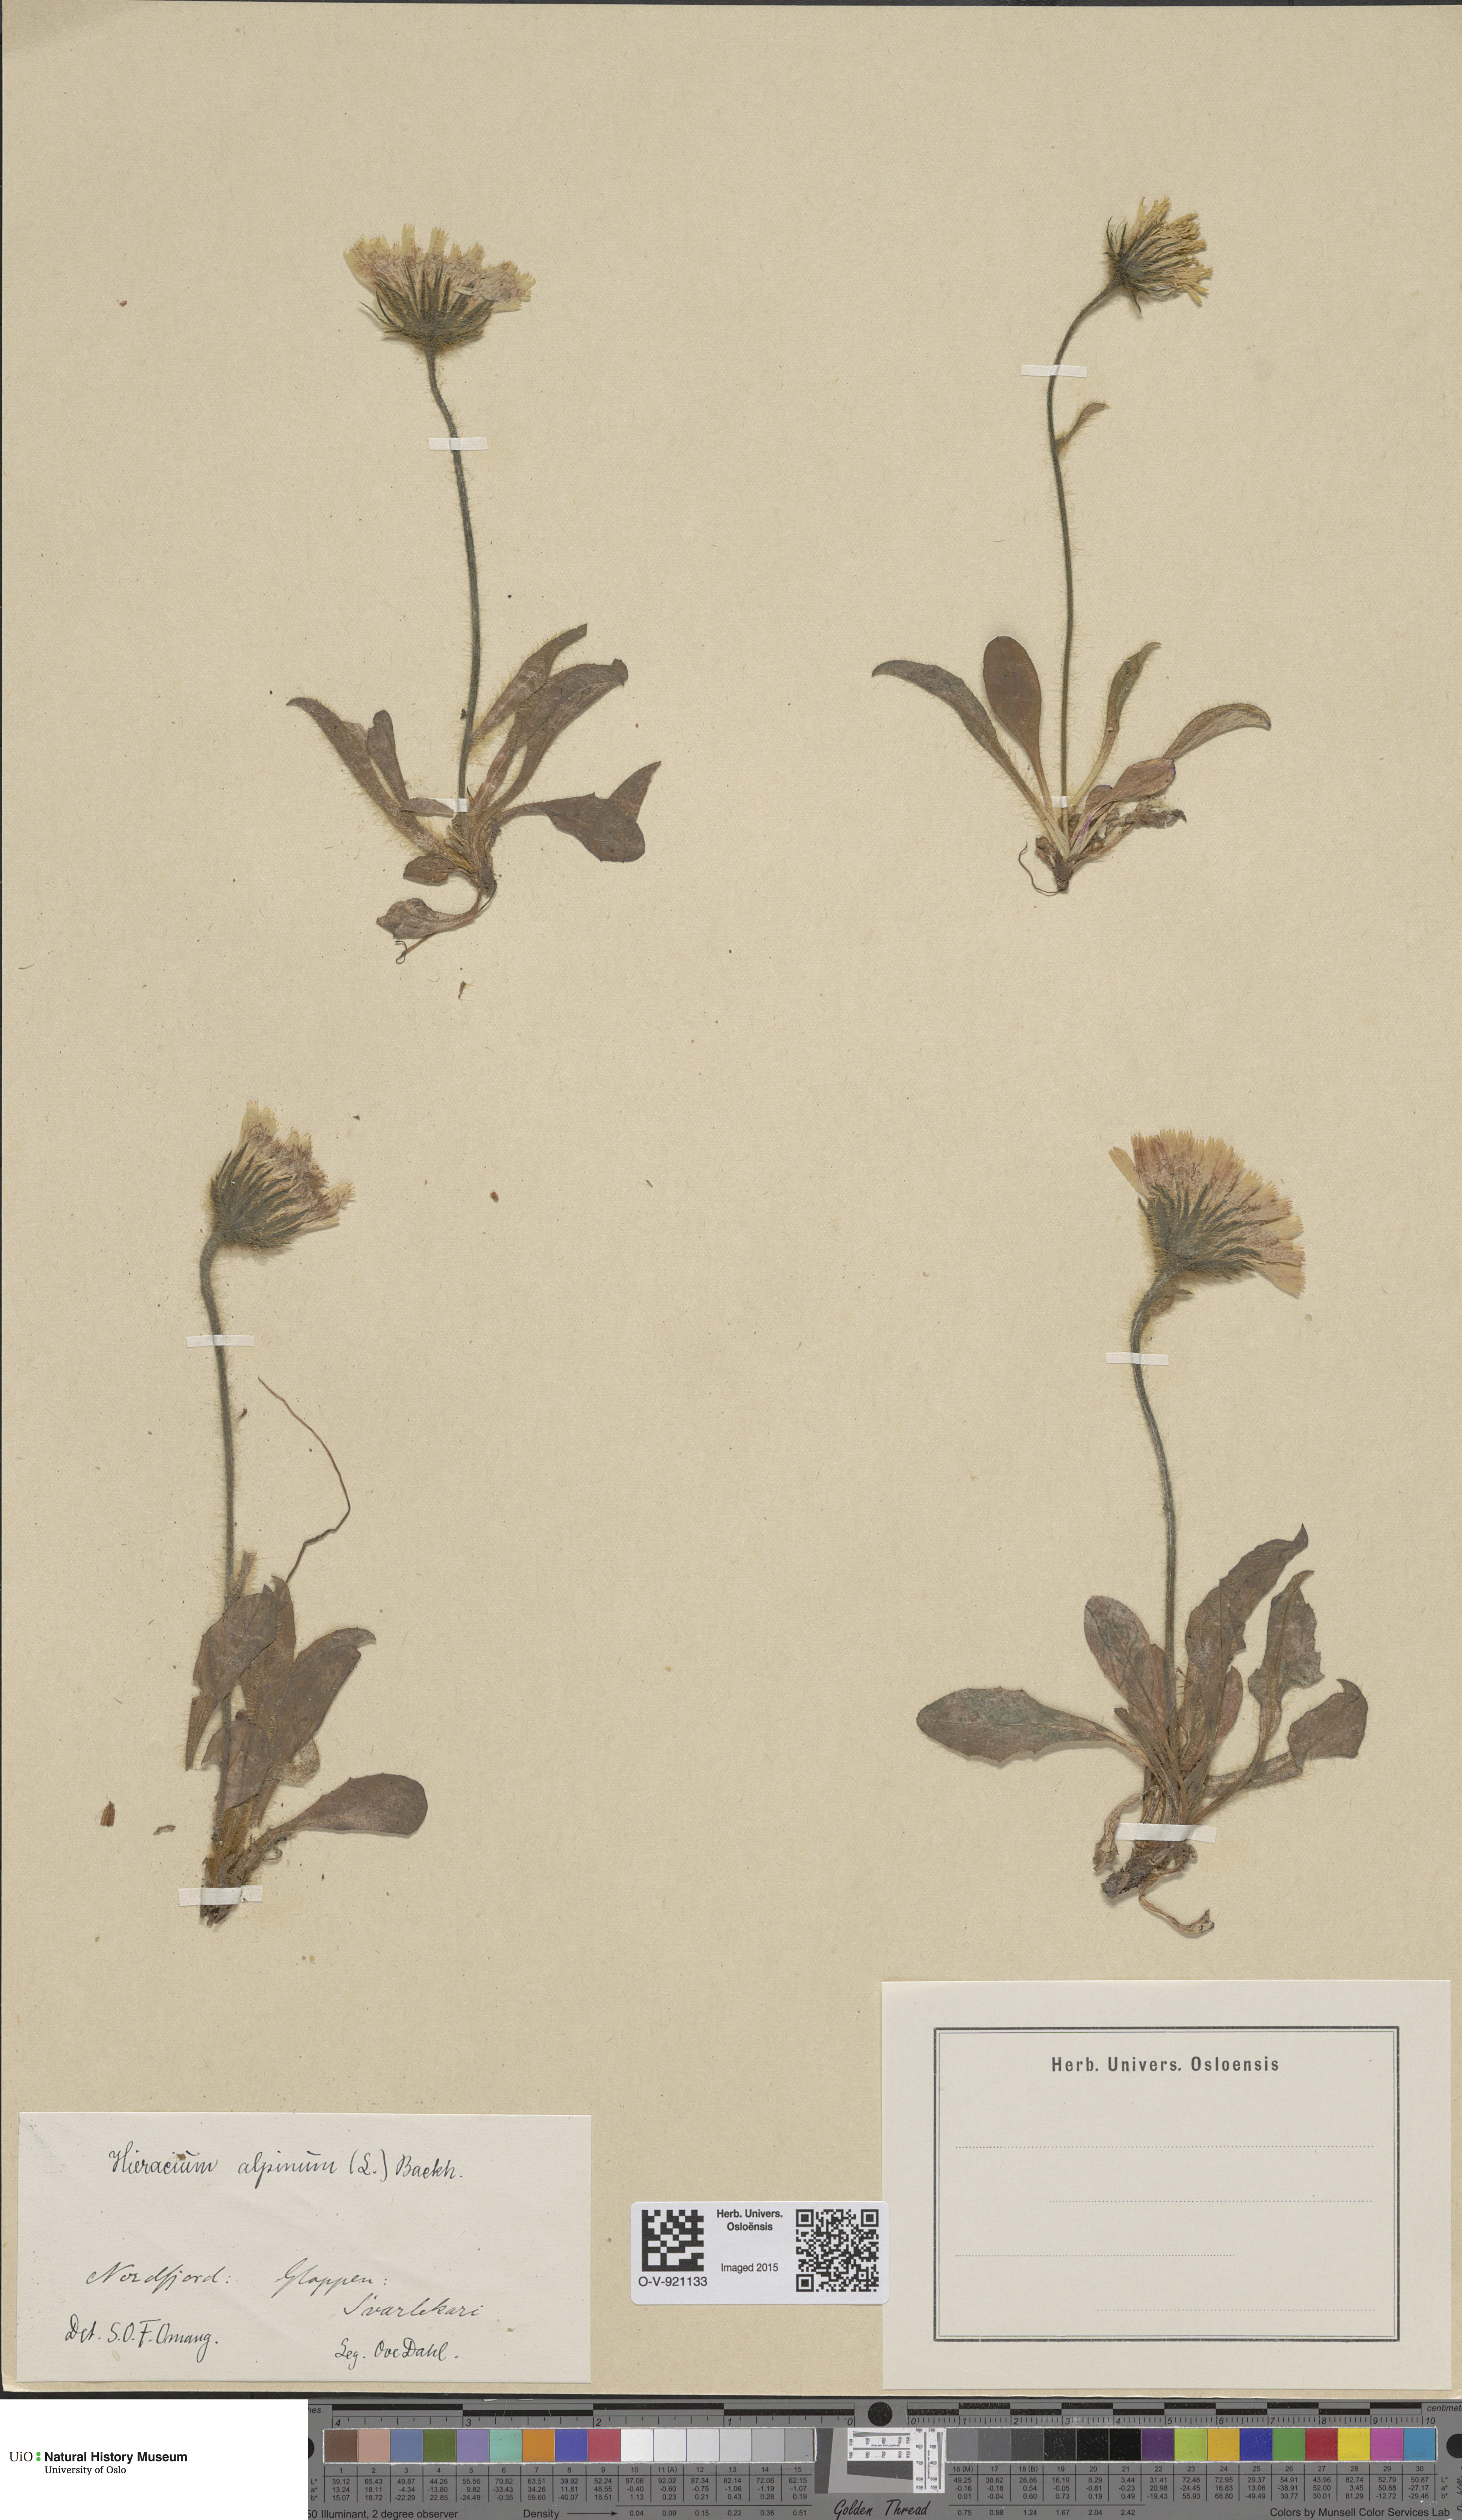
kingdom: Plantae
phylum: Tracheophyta
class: Magnoliopsida
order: Asterales
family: Asteraceae
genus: Hieracium
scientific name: Hieracium alpinum
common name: Alpine hawkweed
